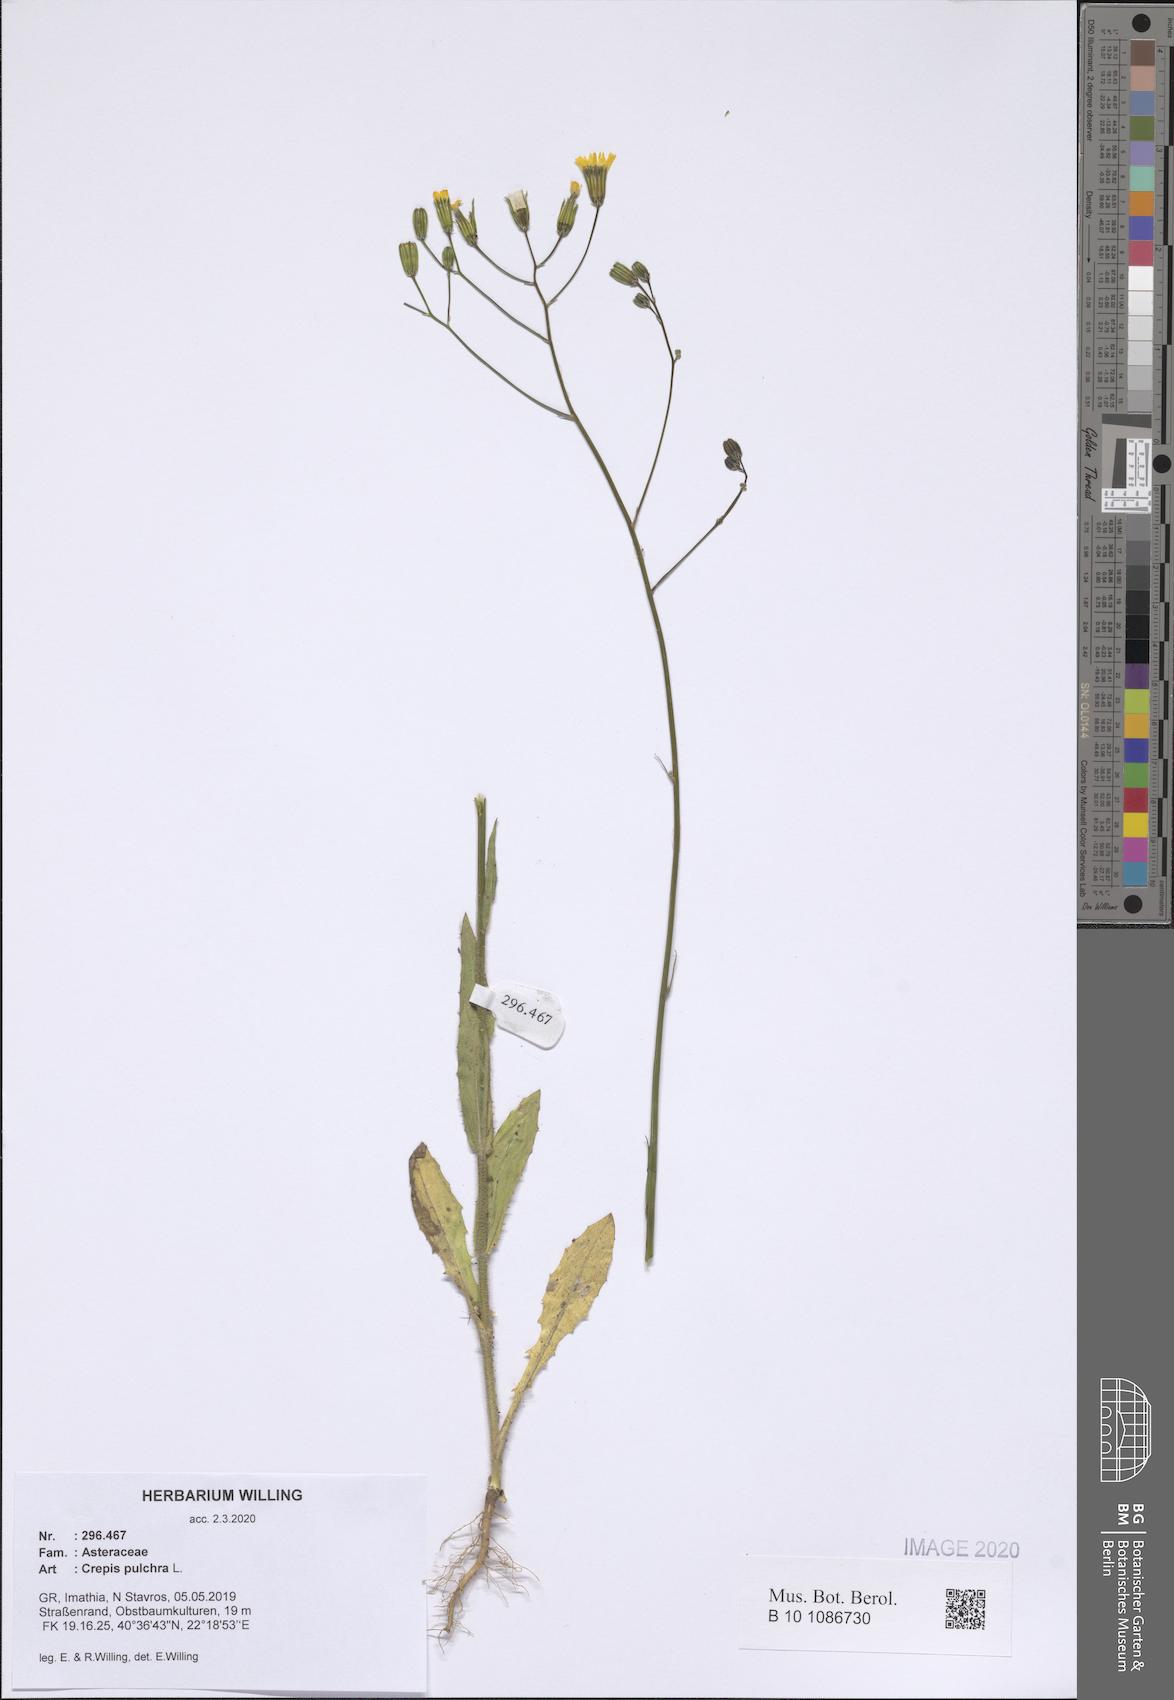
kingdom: Plantae
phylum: Tracheophyta
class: Magnoliopsida
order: Asterales
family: Asteraceae
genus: Crepis
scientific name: Crepis pulchra
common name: Hawk's-beard
